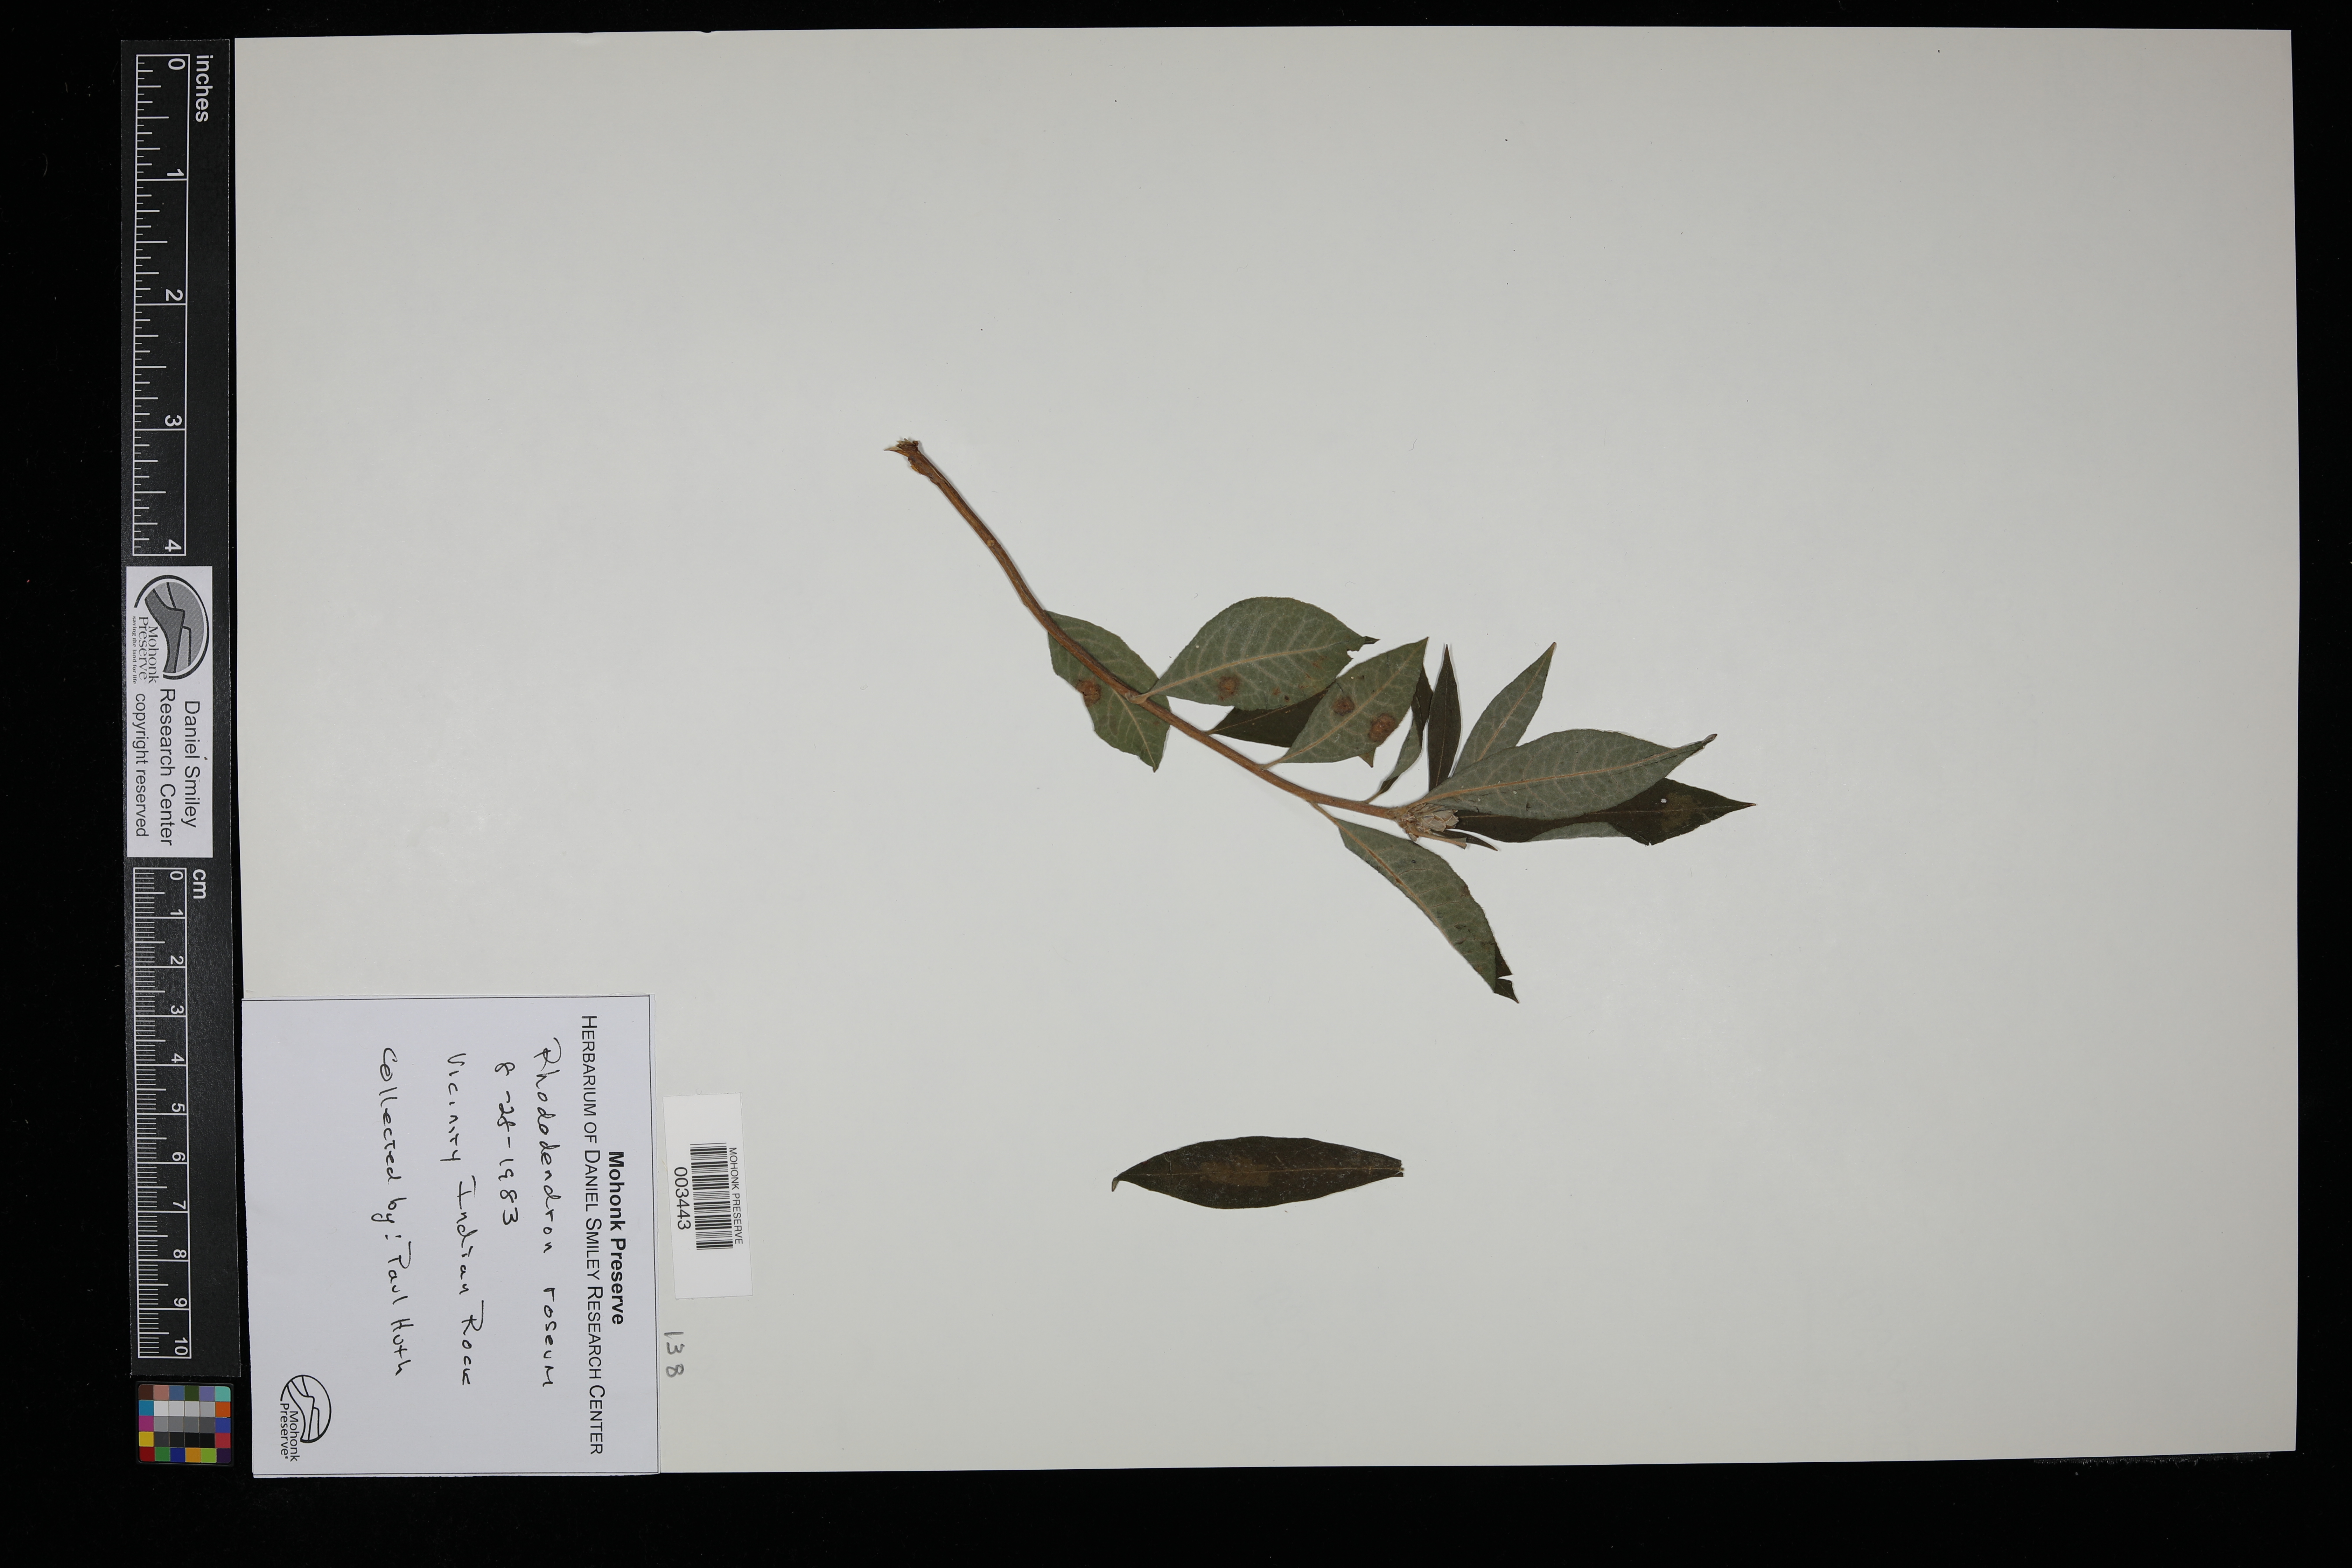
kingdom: Plantae
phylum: Tracheophyta
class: Magnoliopsida
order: Ericales
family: Ericaceae
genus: Rhododendron
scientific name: Rhododendron roseum
